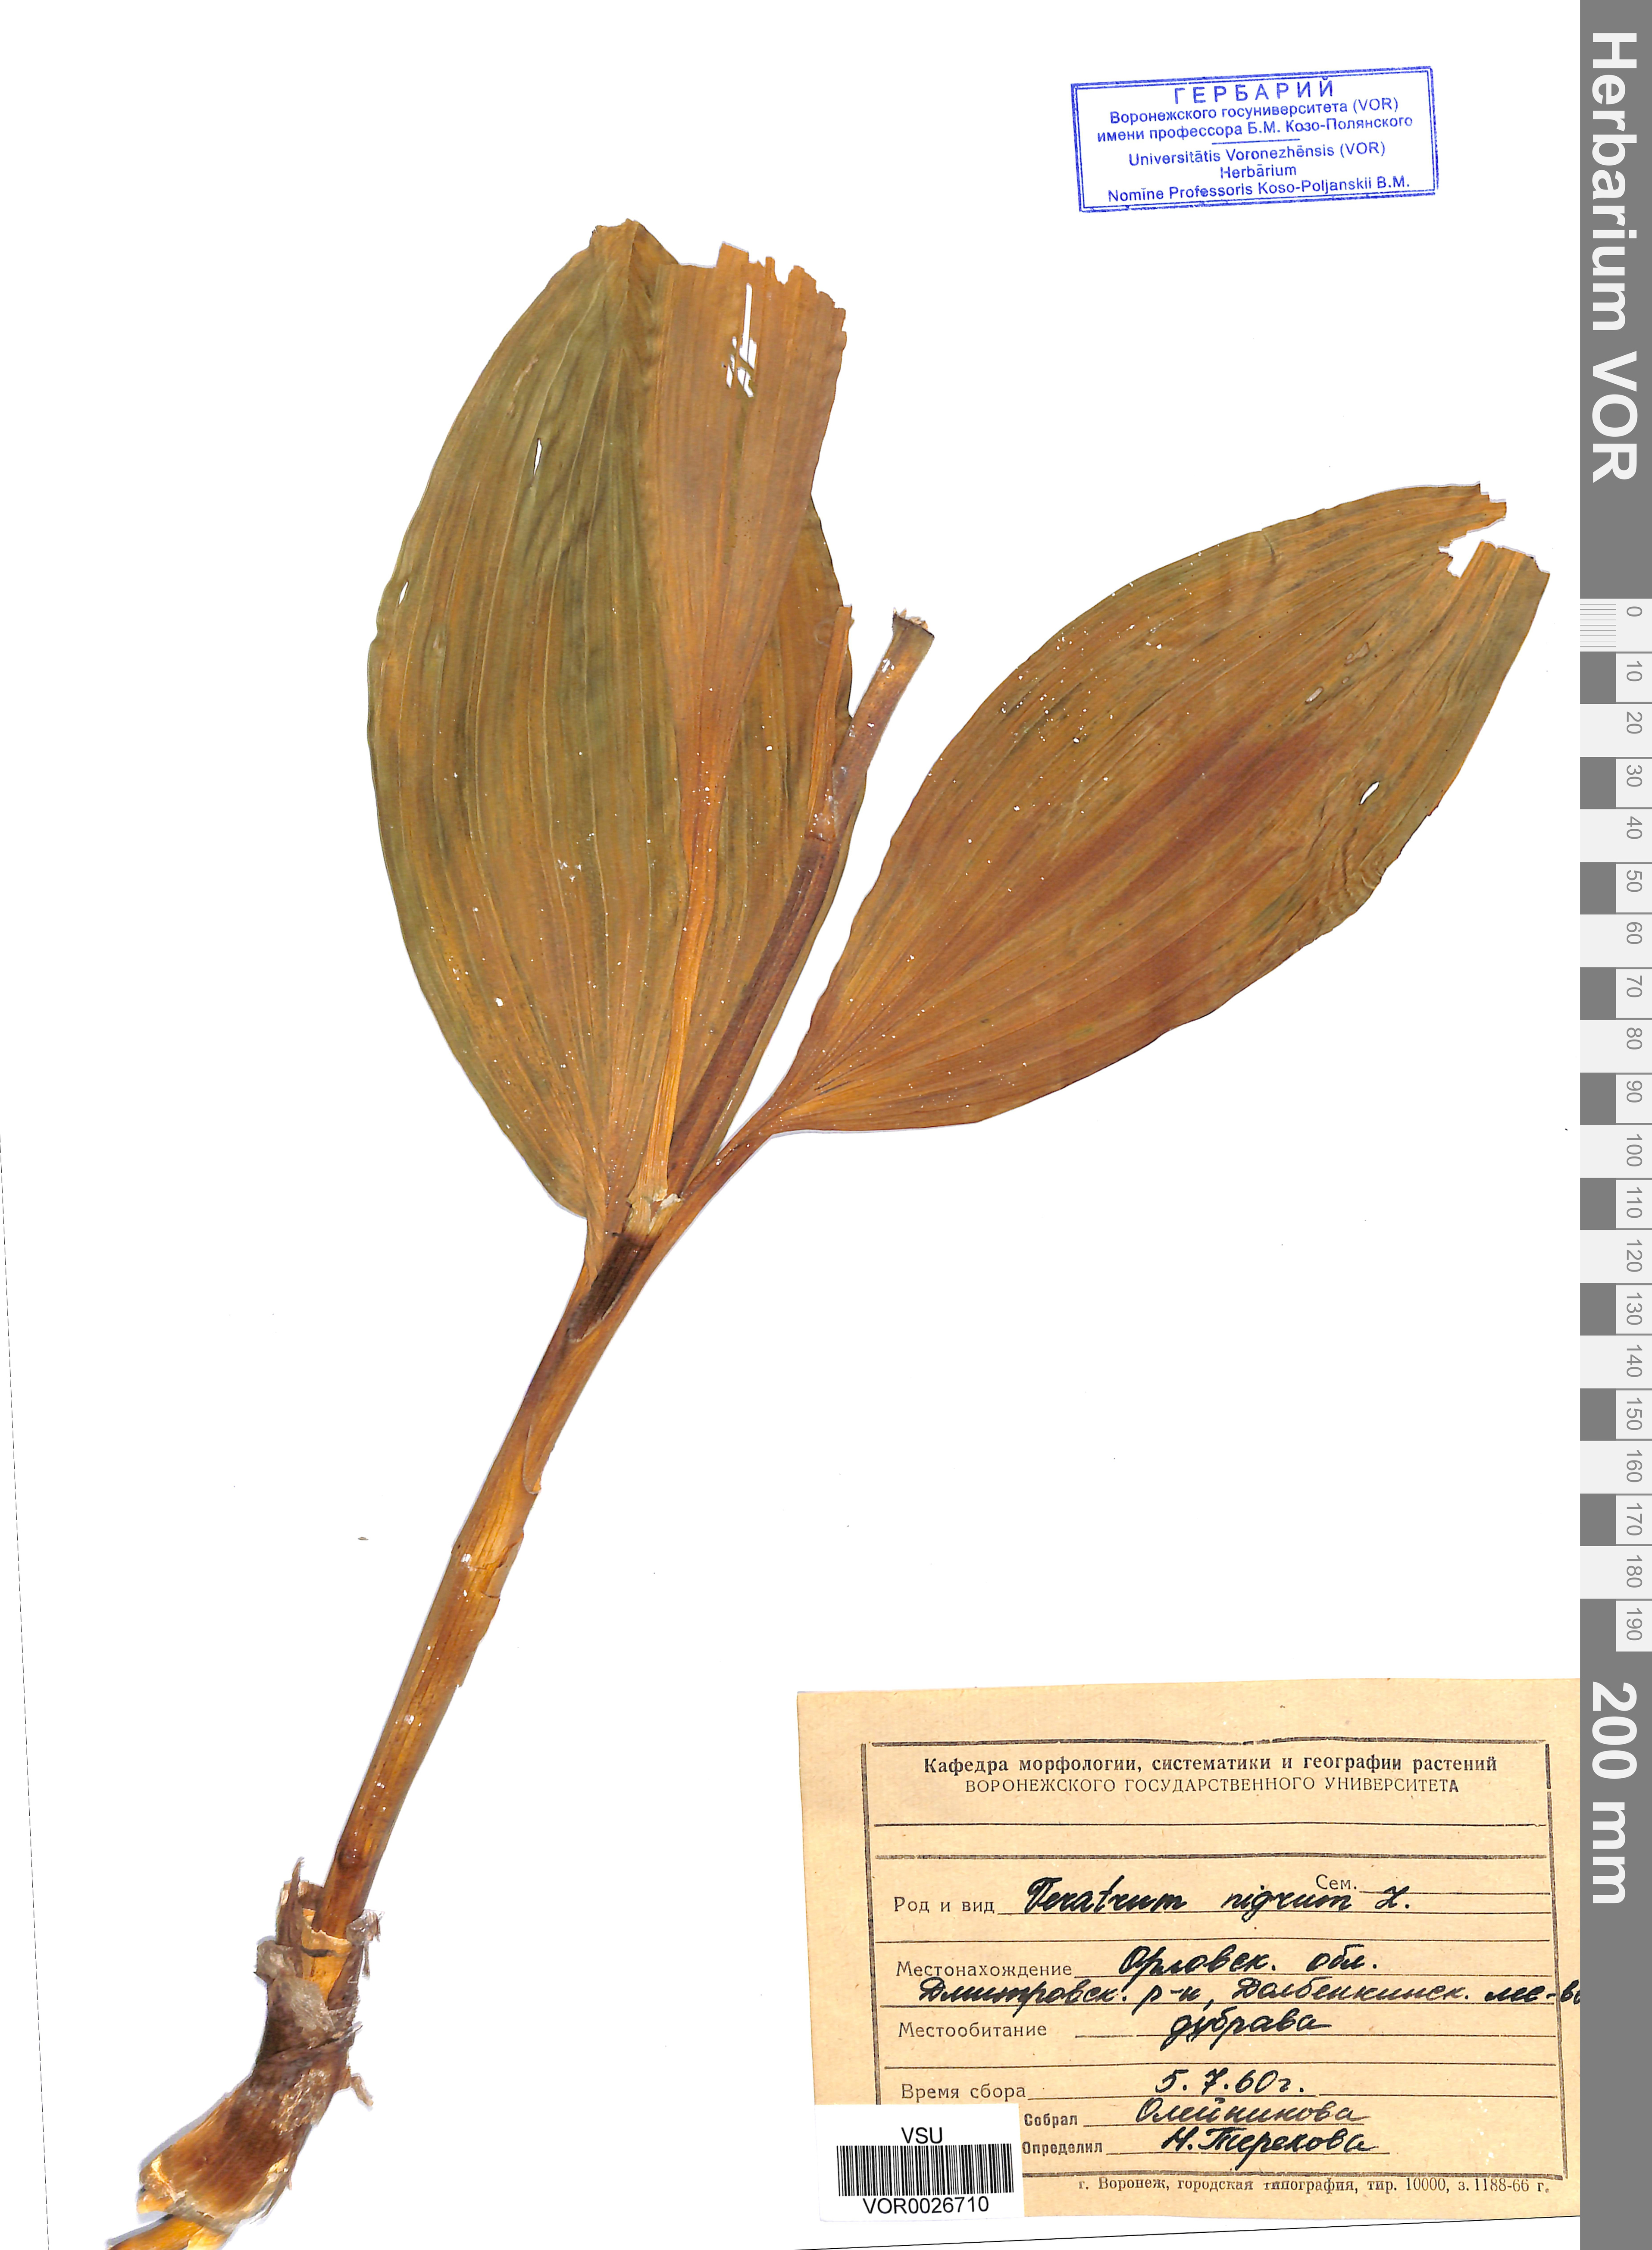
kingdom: Plantae
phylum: Tracheophyta
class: Liliopsida
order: Liliales
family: Melanthiaceae
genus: Veratrum
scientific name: Veratrum nigrum
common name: Black veratrum
